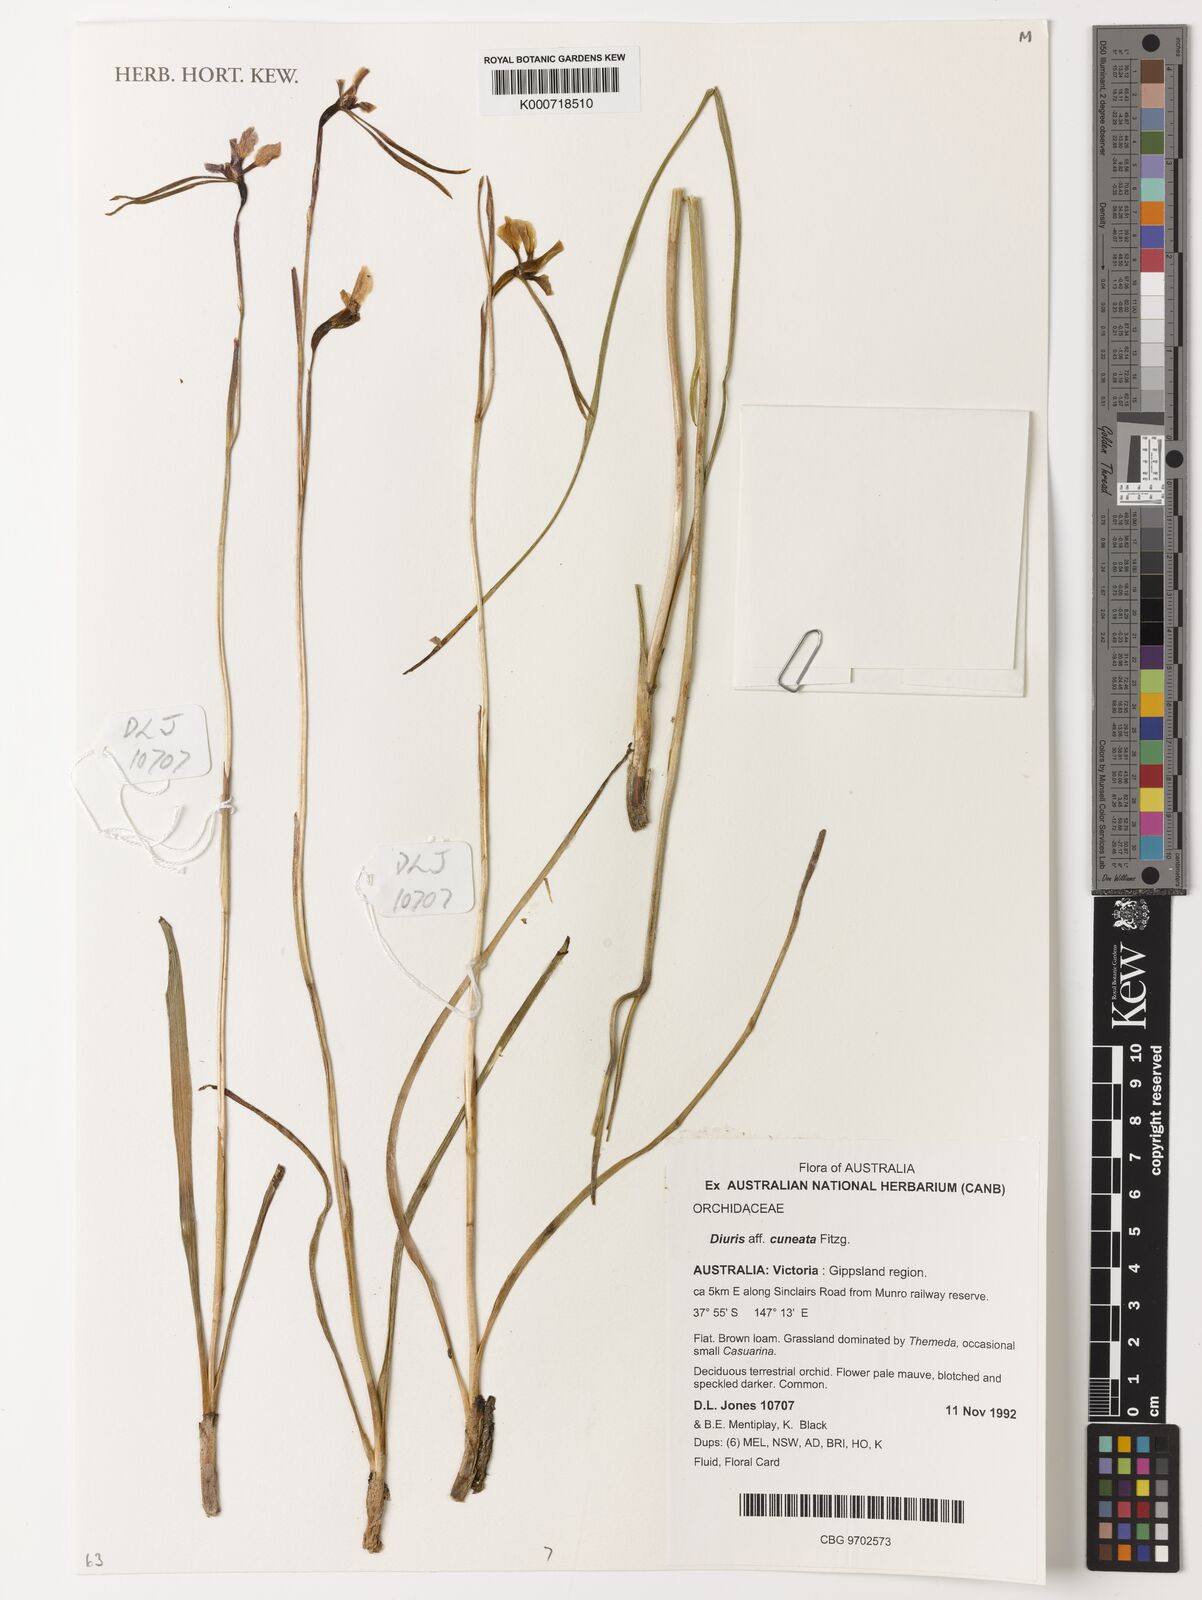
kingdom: Plantae
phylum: Tracheophyta
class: Liliopsida
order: Asparagales
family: Orchidaceae
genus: Diuris
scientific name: Diuris cuneata
